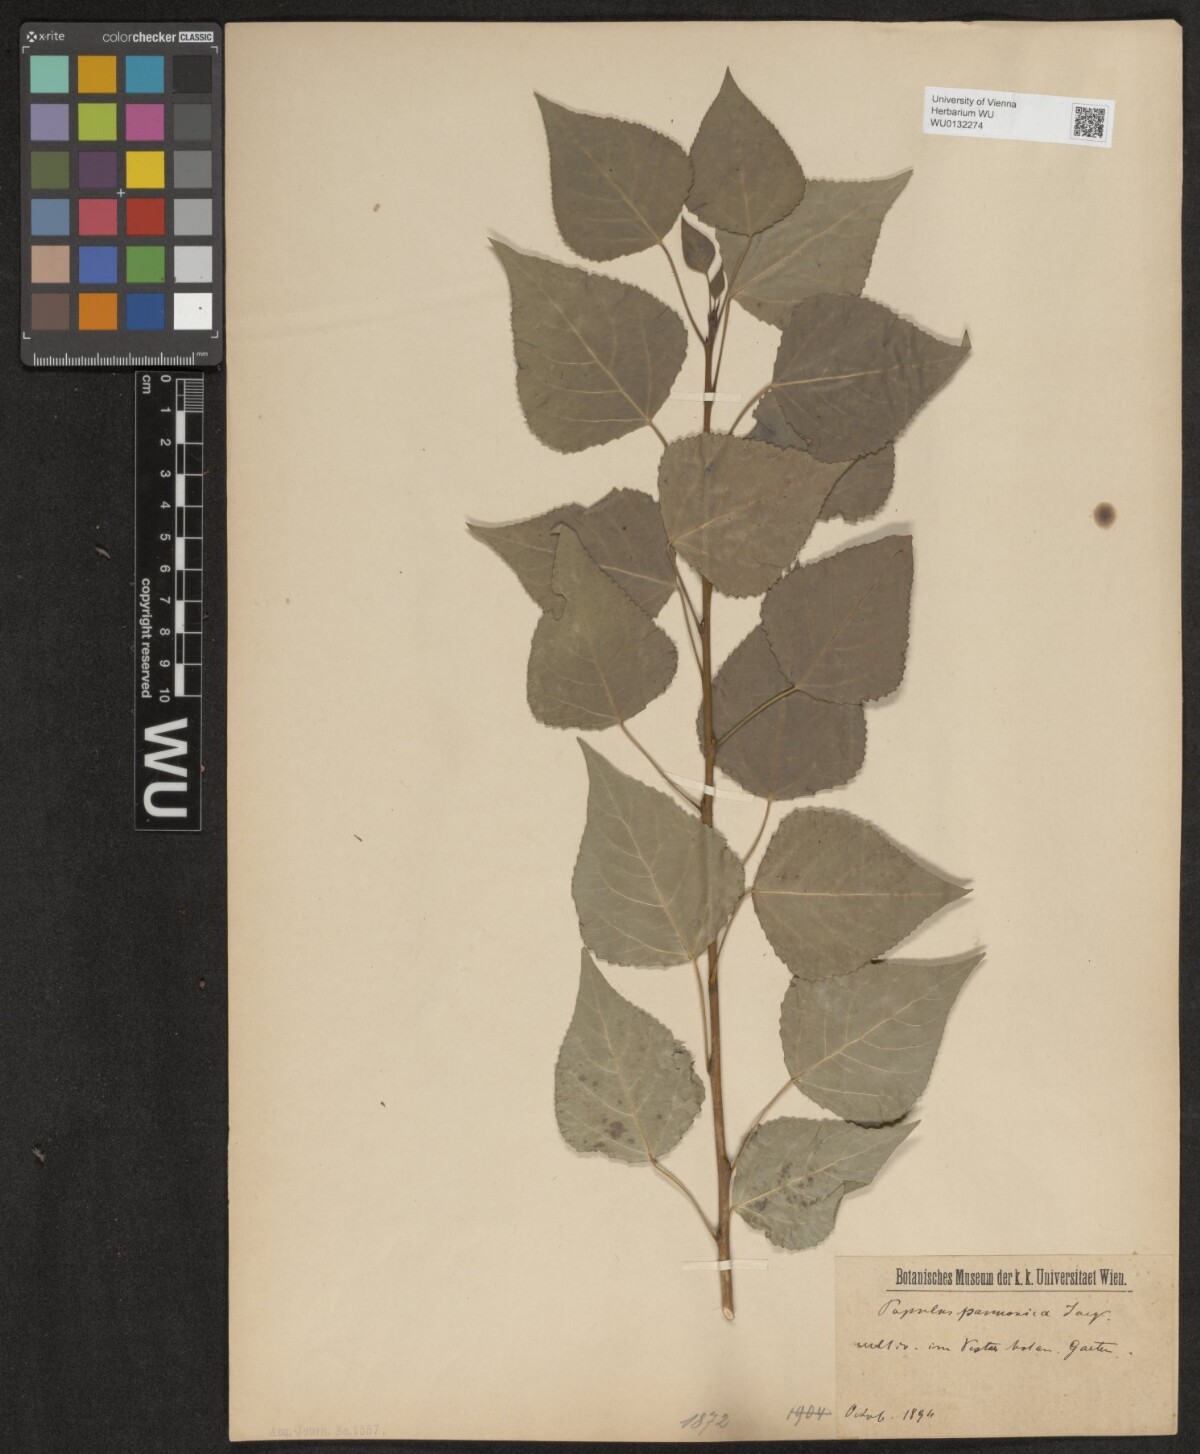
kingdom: Plantae
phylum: Tracheophyta
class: Magnoliopsida
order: Malpighiales
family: Salicaceae
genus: Populus
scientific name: Populus nigra
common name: Black poplar
